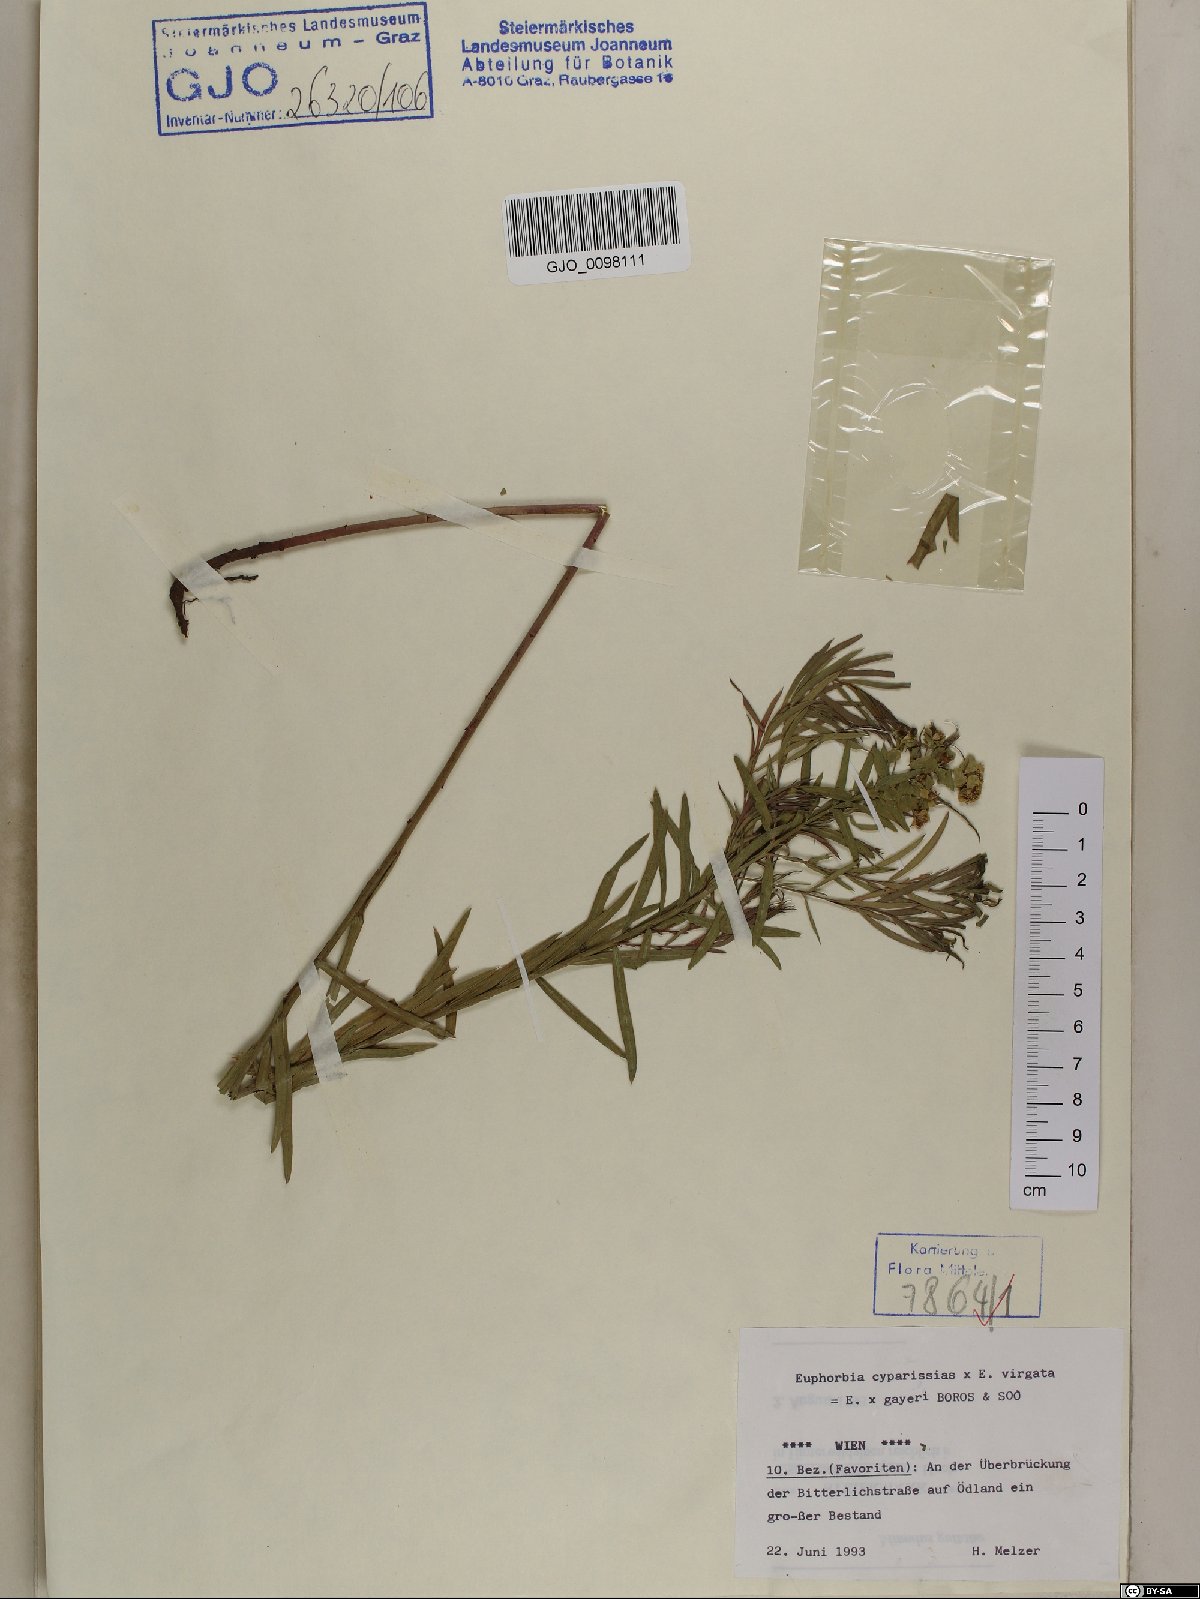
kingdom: Plantae
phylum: Tracheophyta
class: Magnoliopsida
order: Malpighiales
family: Euphorbiaceae
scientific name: Euphorbiaceae
